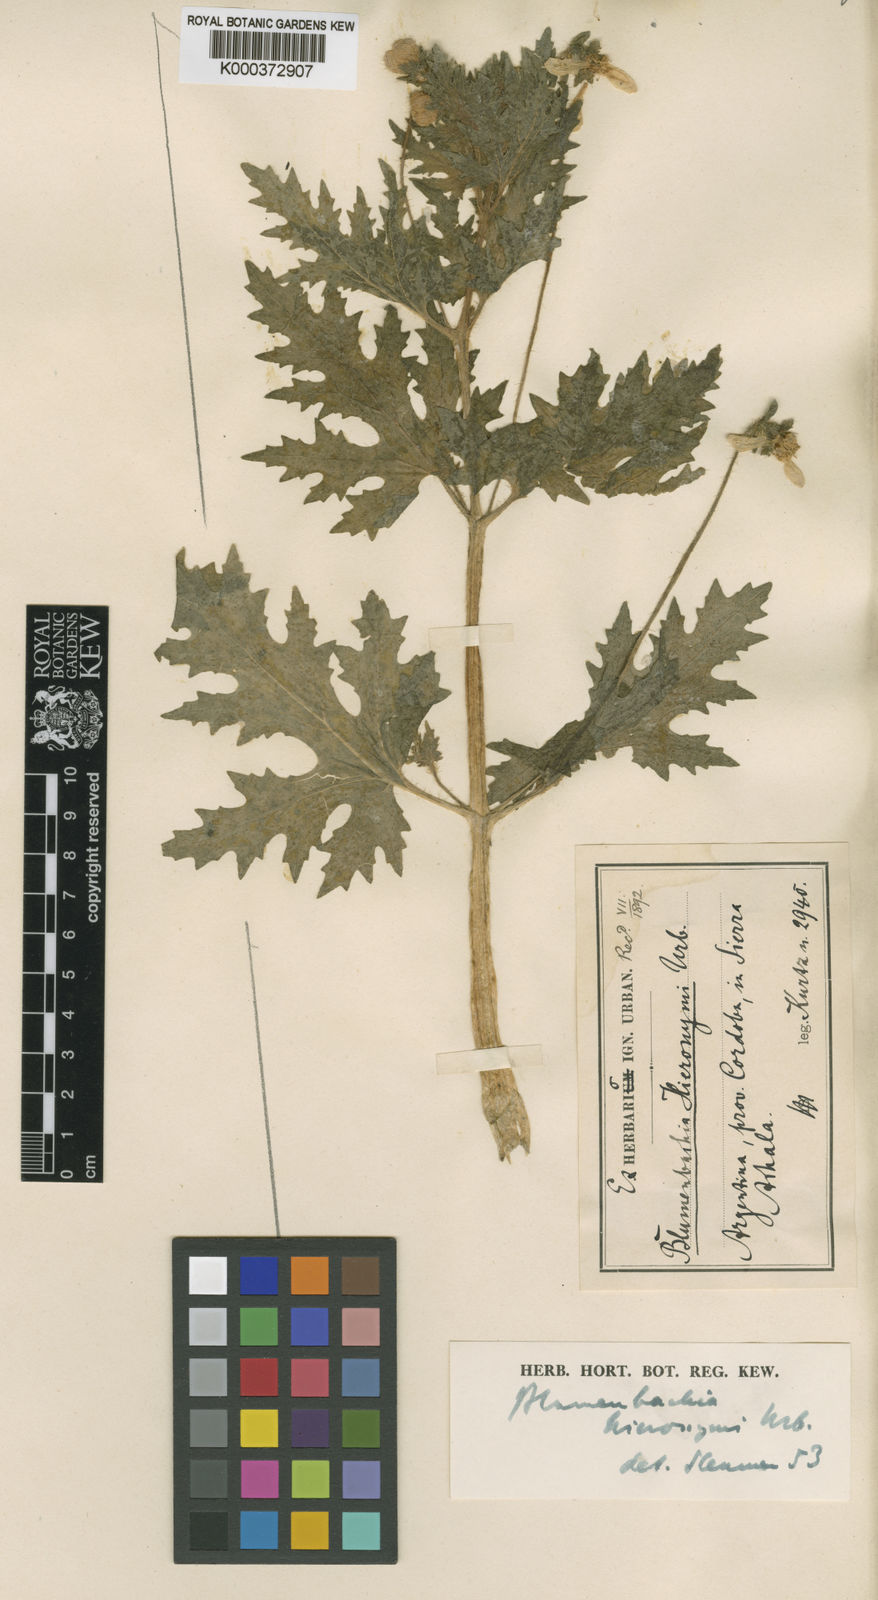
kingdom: Plantae
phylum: Tracheophyta
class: Magnoliopsida
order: Cornales
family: Loasaceae
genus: Blumenbachia
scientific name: Blumenbachia hieronymi
